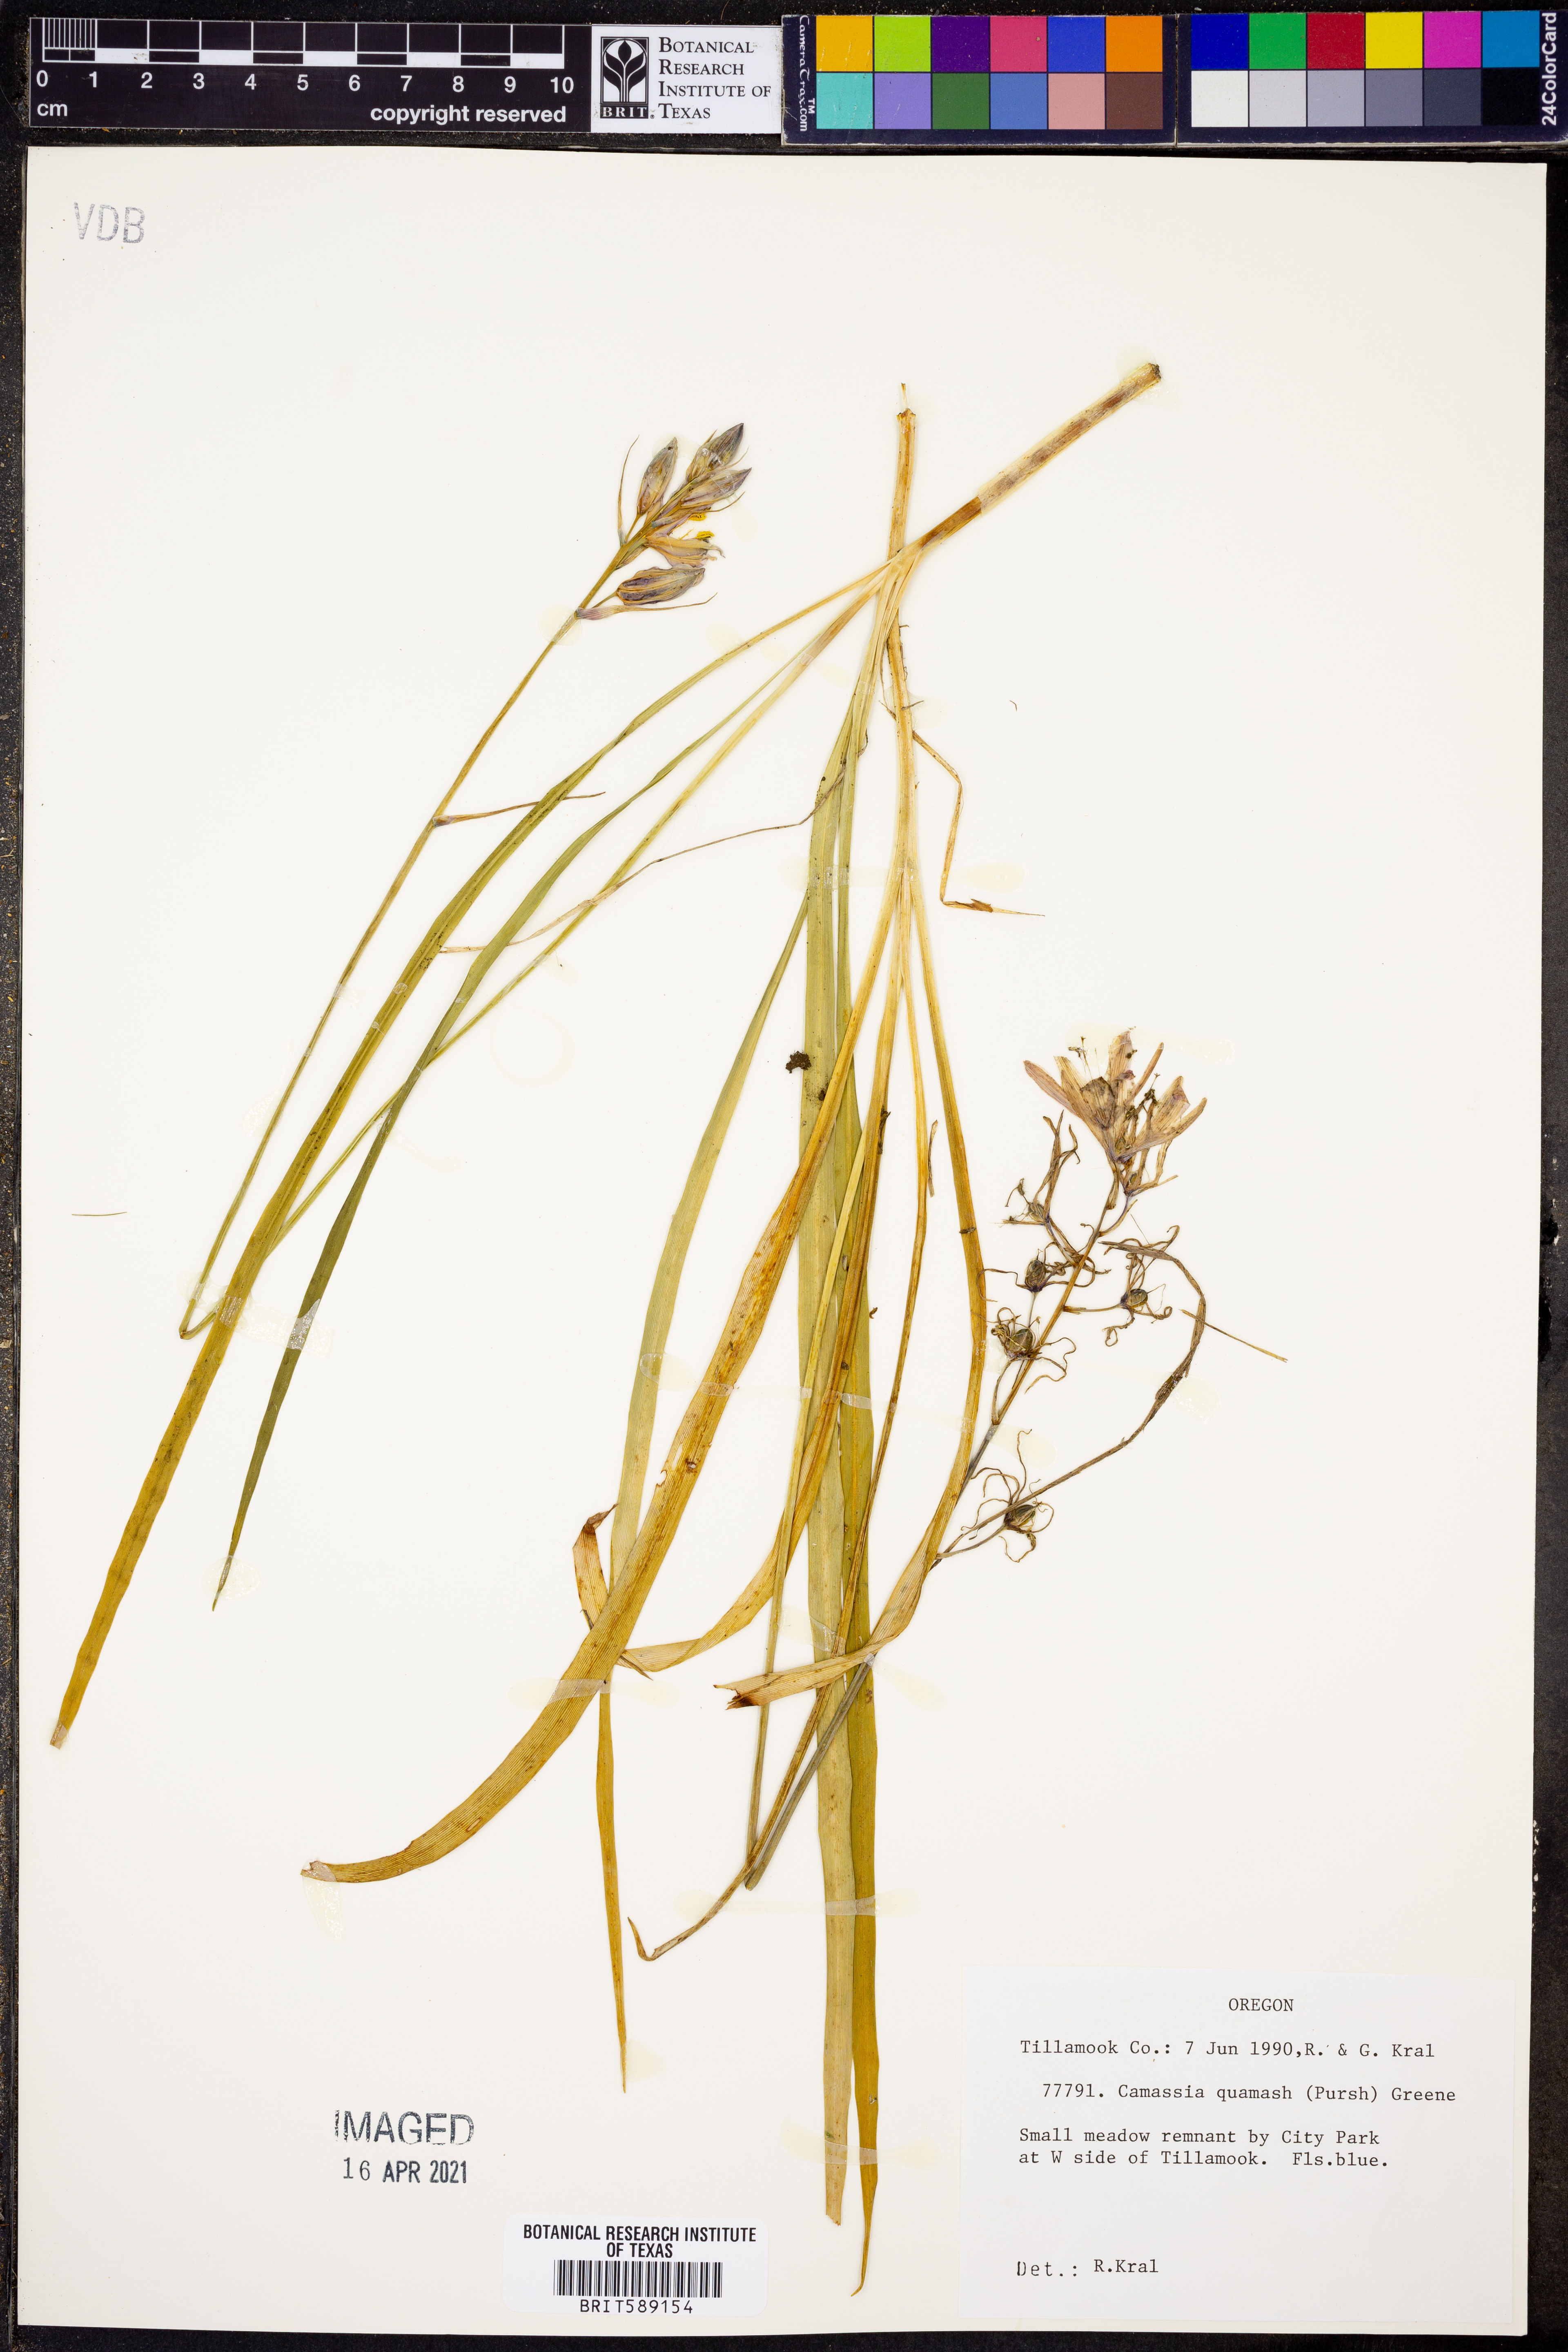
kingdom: Plantae
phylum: Tracheophyta
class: Liliopsida
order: Asparagales
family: Asparagaceae
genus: Camassia
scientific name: Camassia quamash
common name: Common camas
